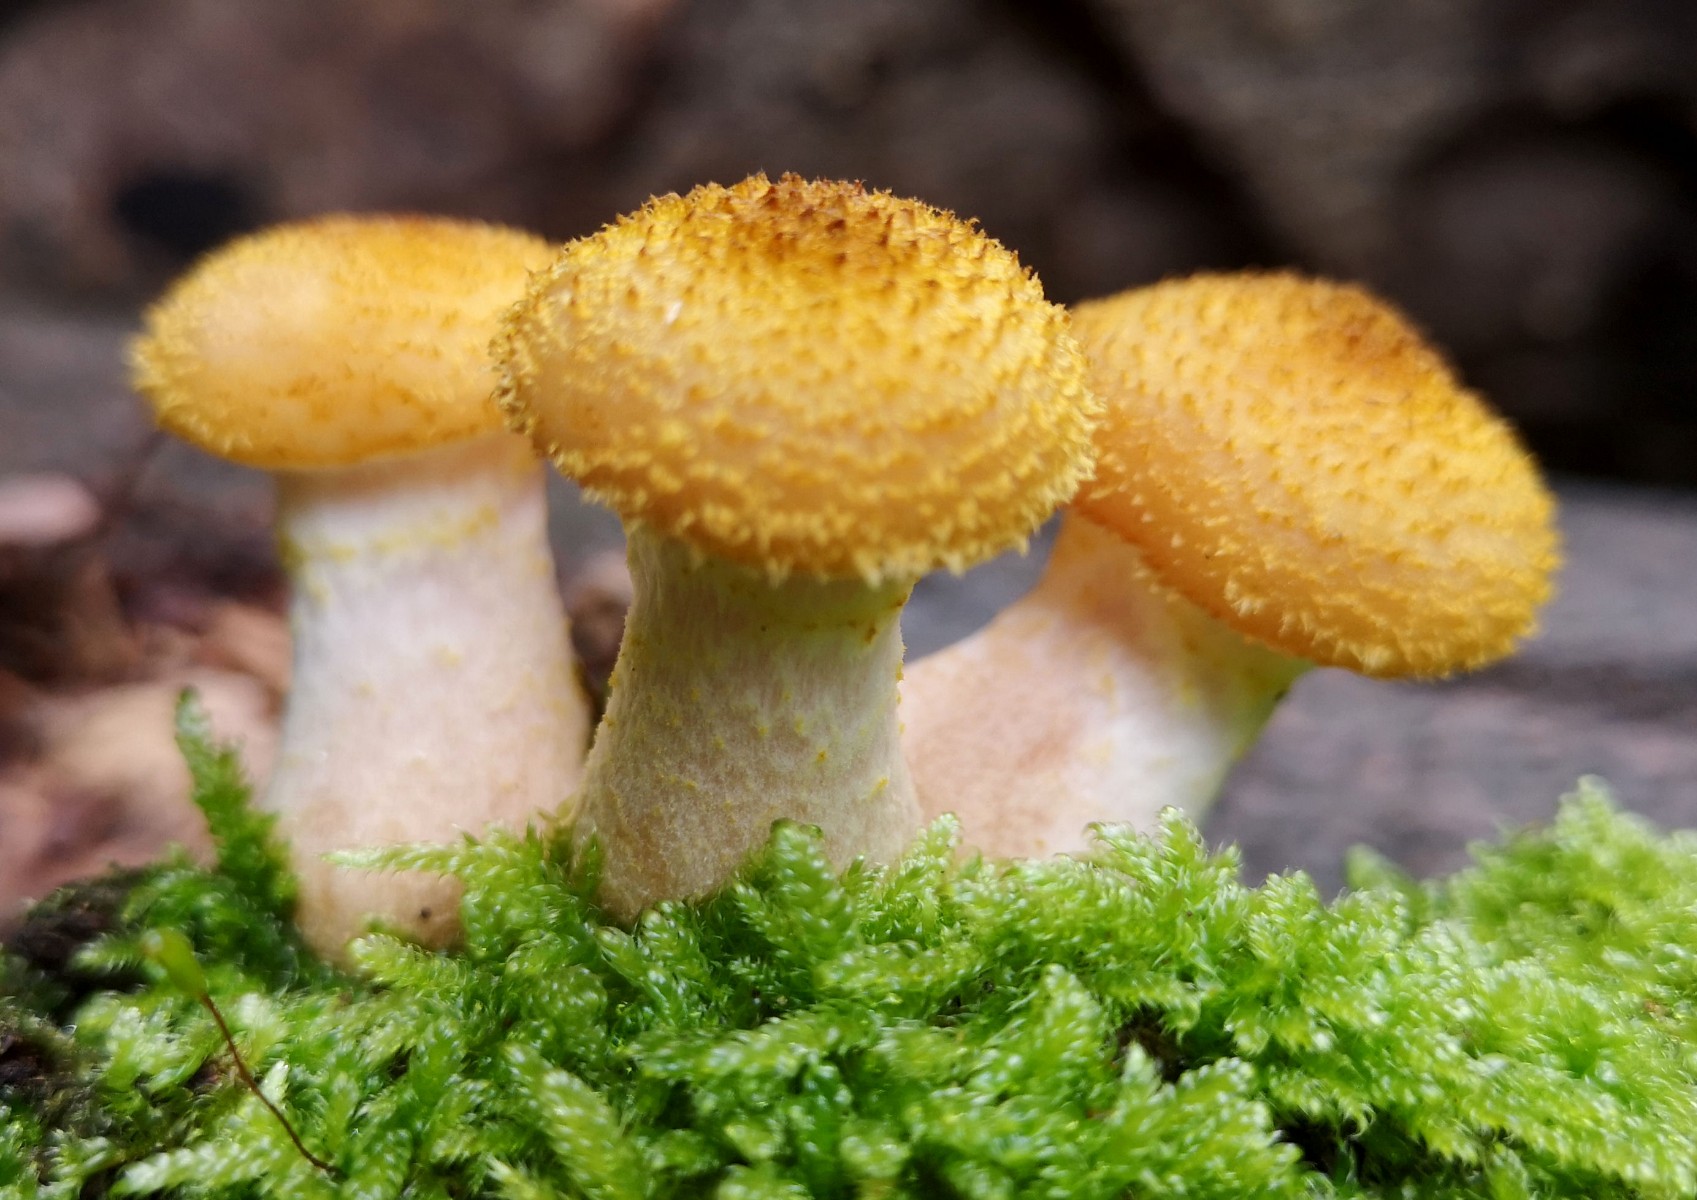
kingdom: Fungi
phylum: Basidiomycota
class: Agaricomycetes
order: Agaricales
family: Physalacriaceae
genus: Armillaria
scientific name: Armillaria lutea
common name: køllestokket honningsvamp
